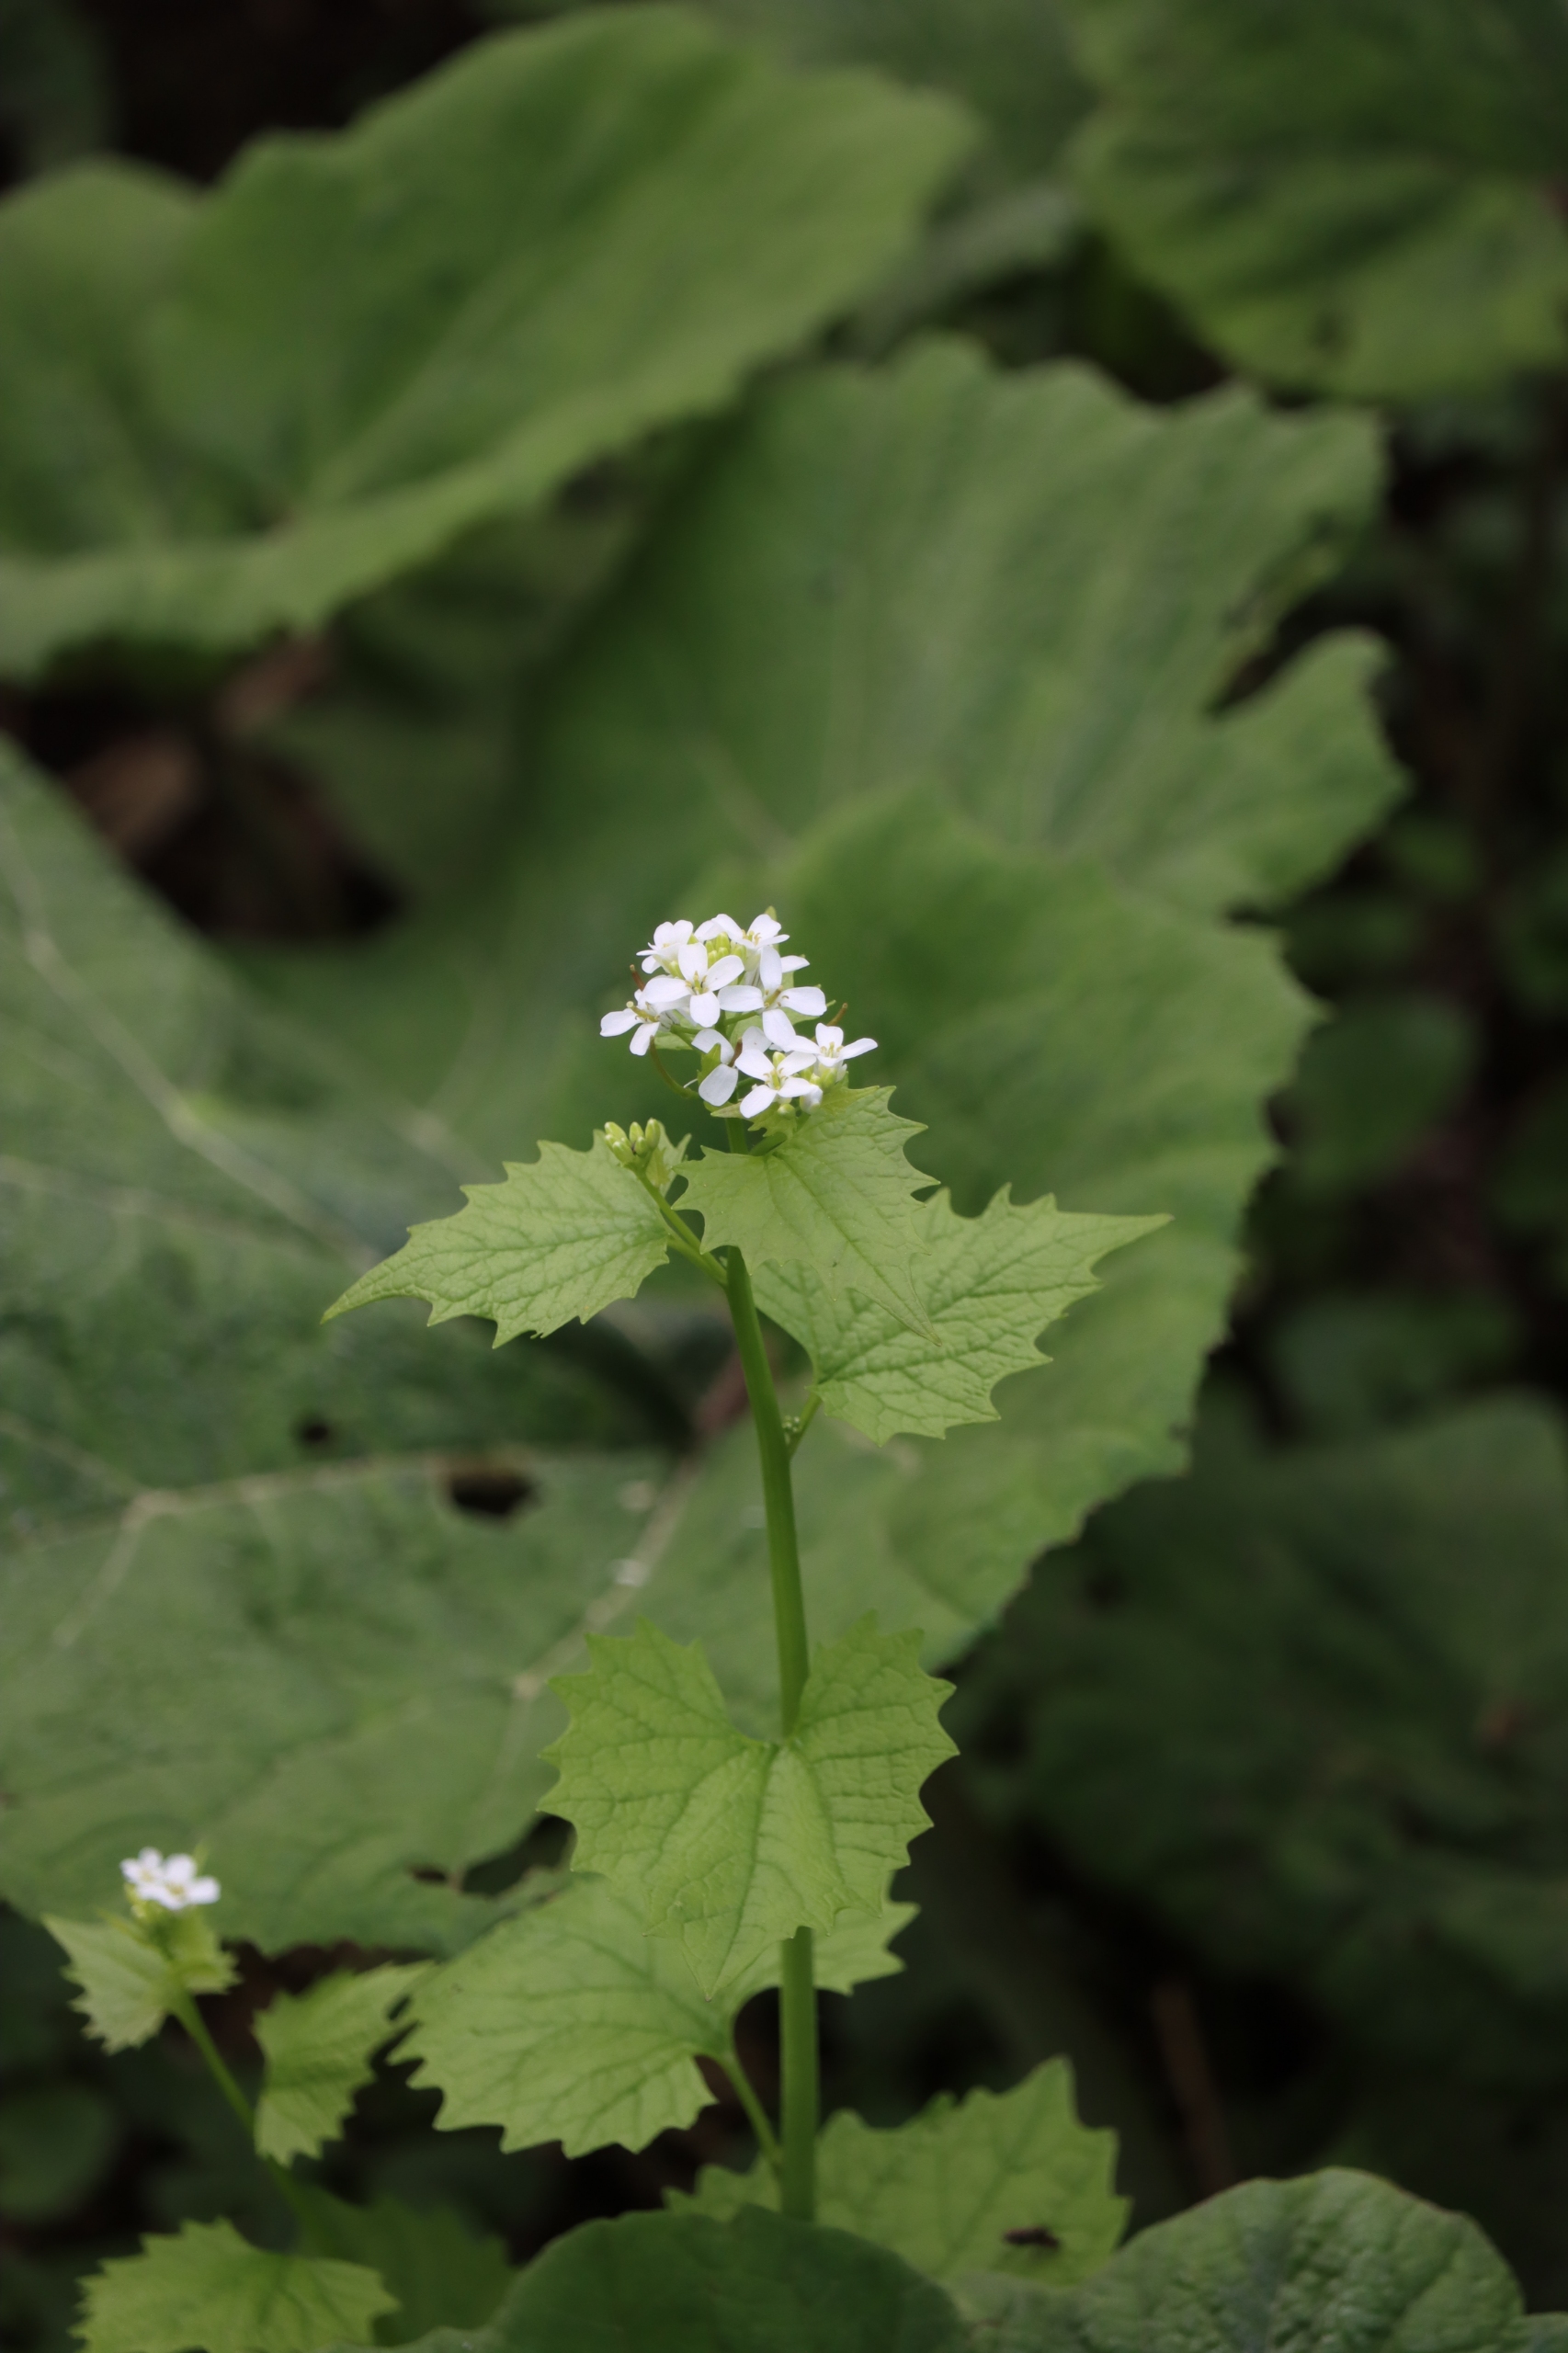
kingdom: Plantae
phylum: Tracheophyta
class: Magnoliopsida
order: Brassicales
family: Brassicaceae
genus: Alliaria
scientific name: Alliaria petiolata
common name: Løgkarse
